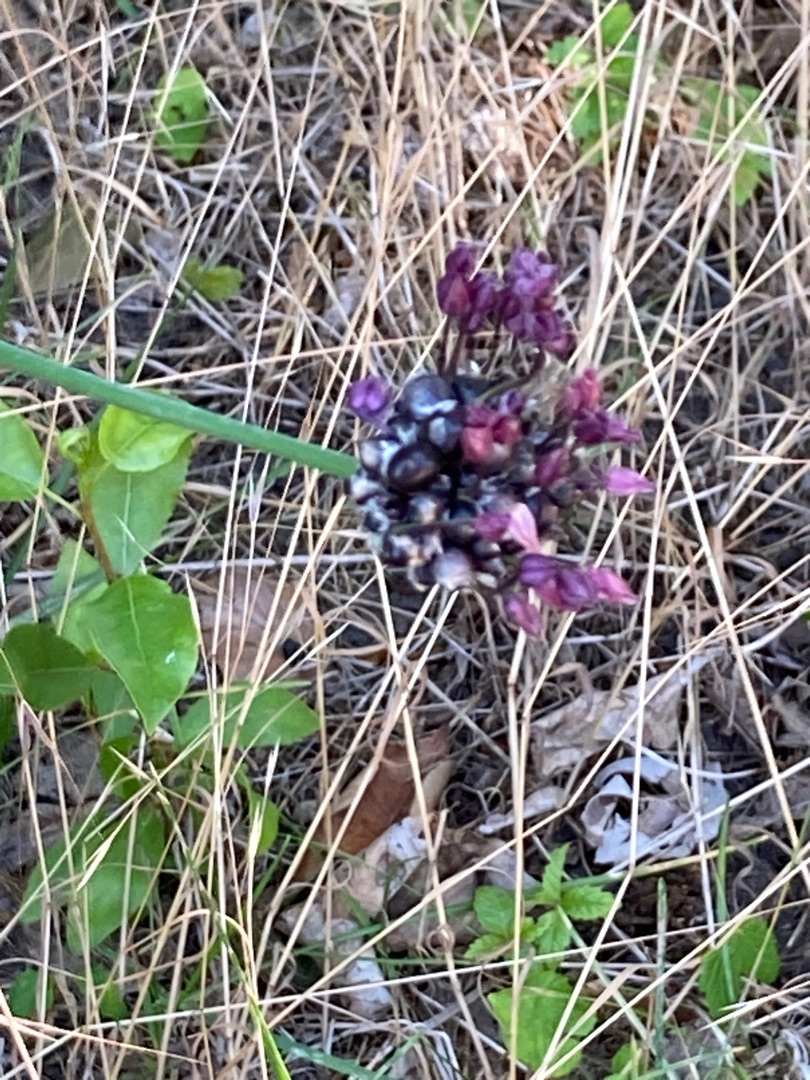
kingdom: Plantae
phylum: Tracheophyta
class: Liliopsida
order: Asparagales
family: Amaryllidaceae
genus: Allium
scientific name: Allium scorodoprasum
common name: Skov-løg
